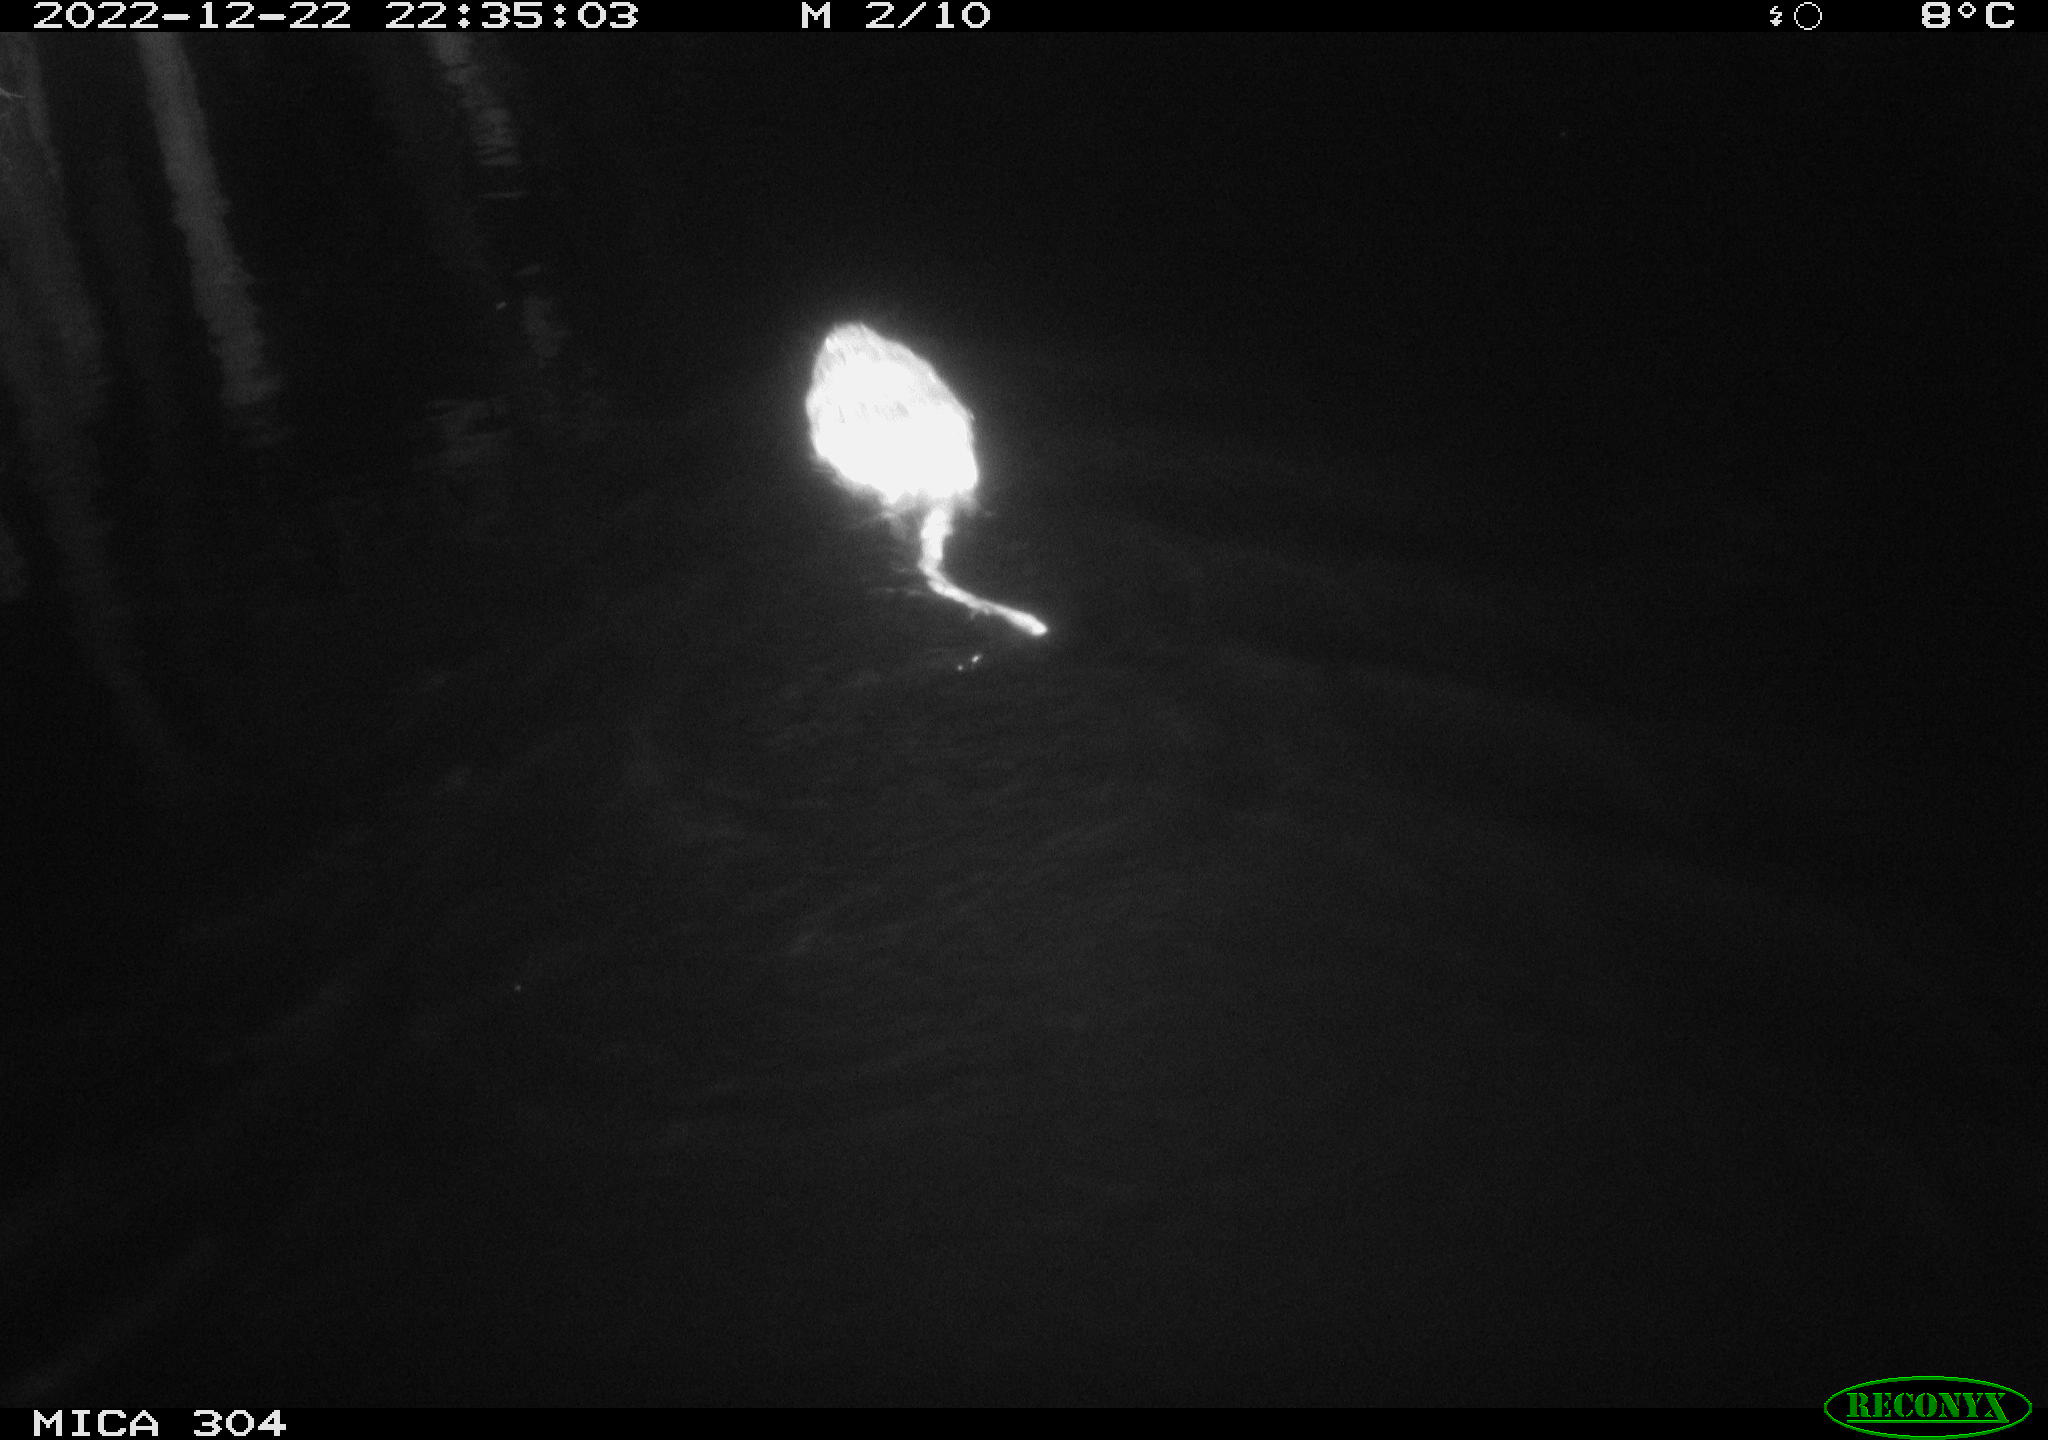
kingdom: Animalia
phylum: Chordata
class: Mammalia
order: Rodentia
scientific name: Rodentia
